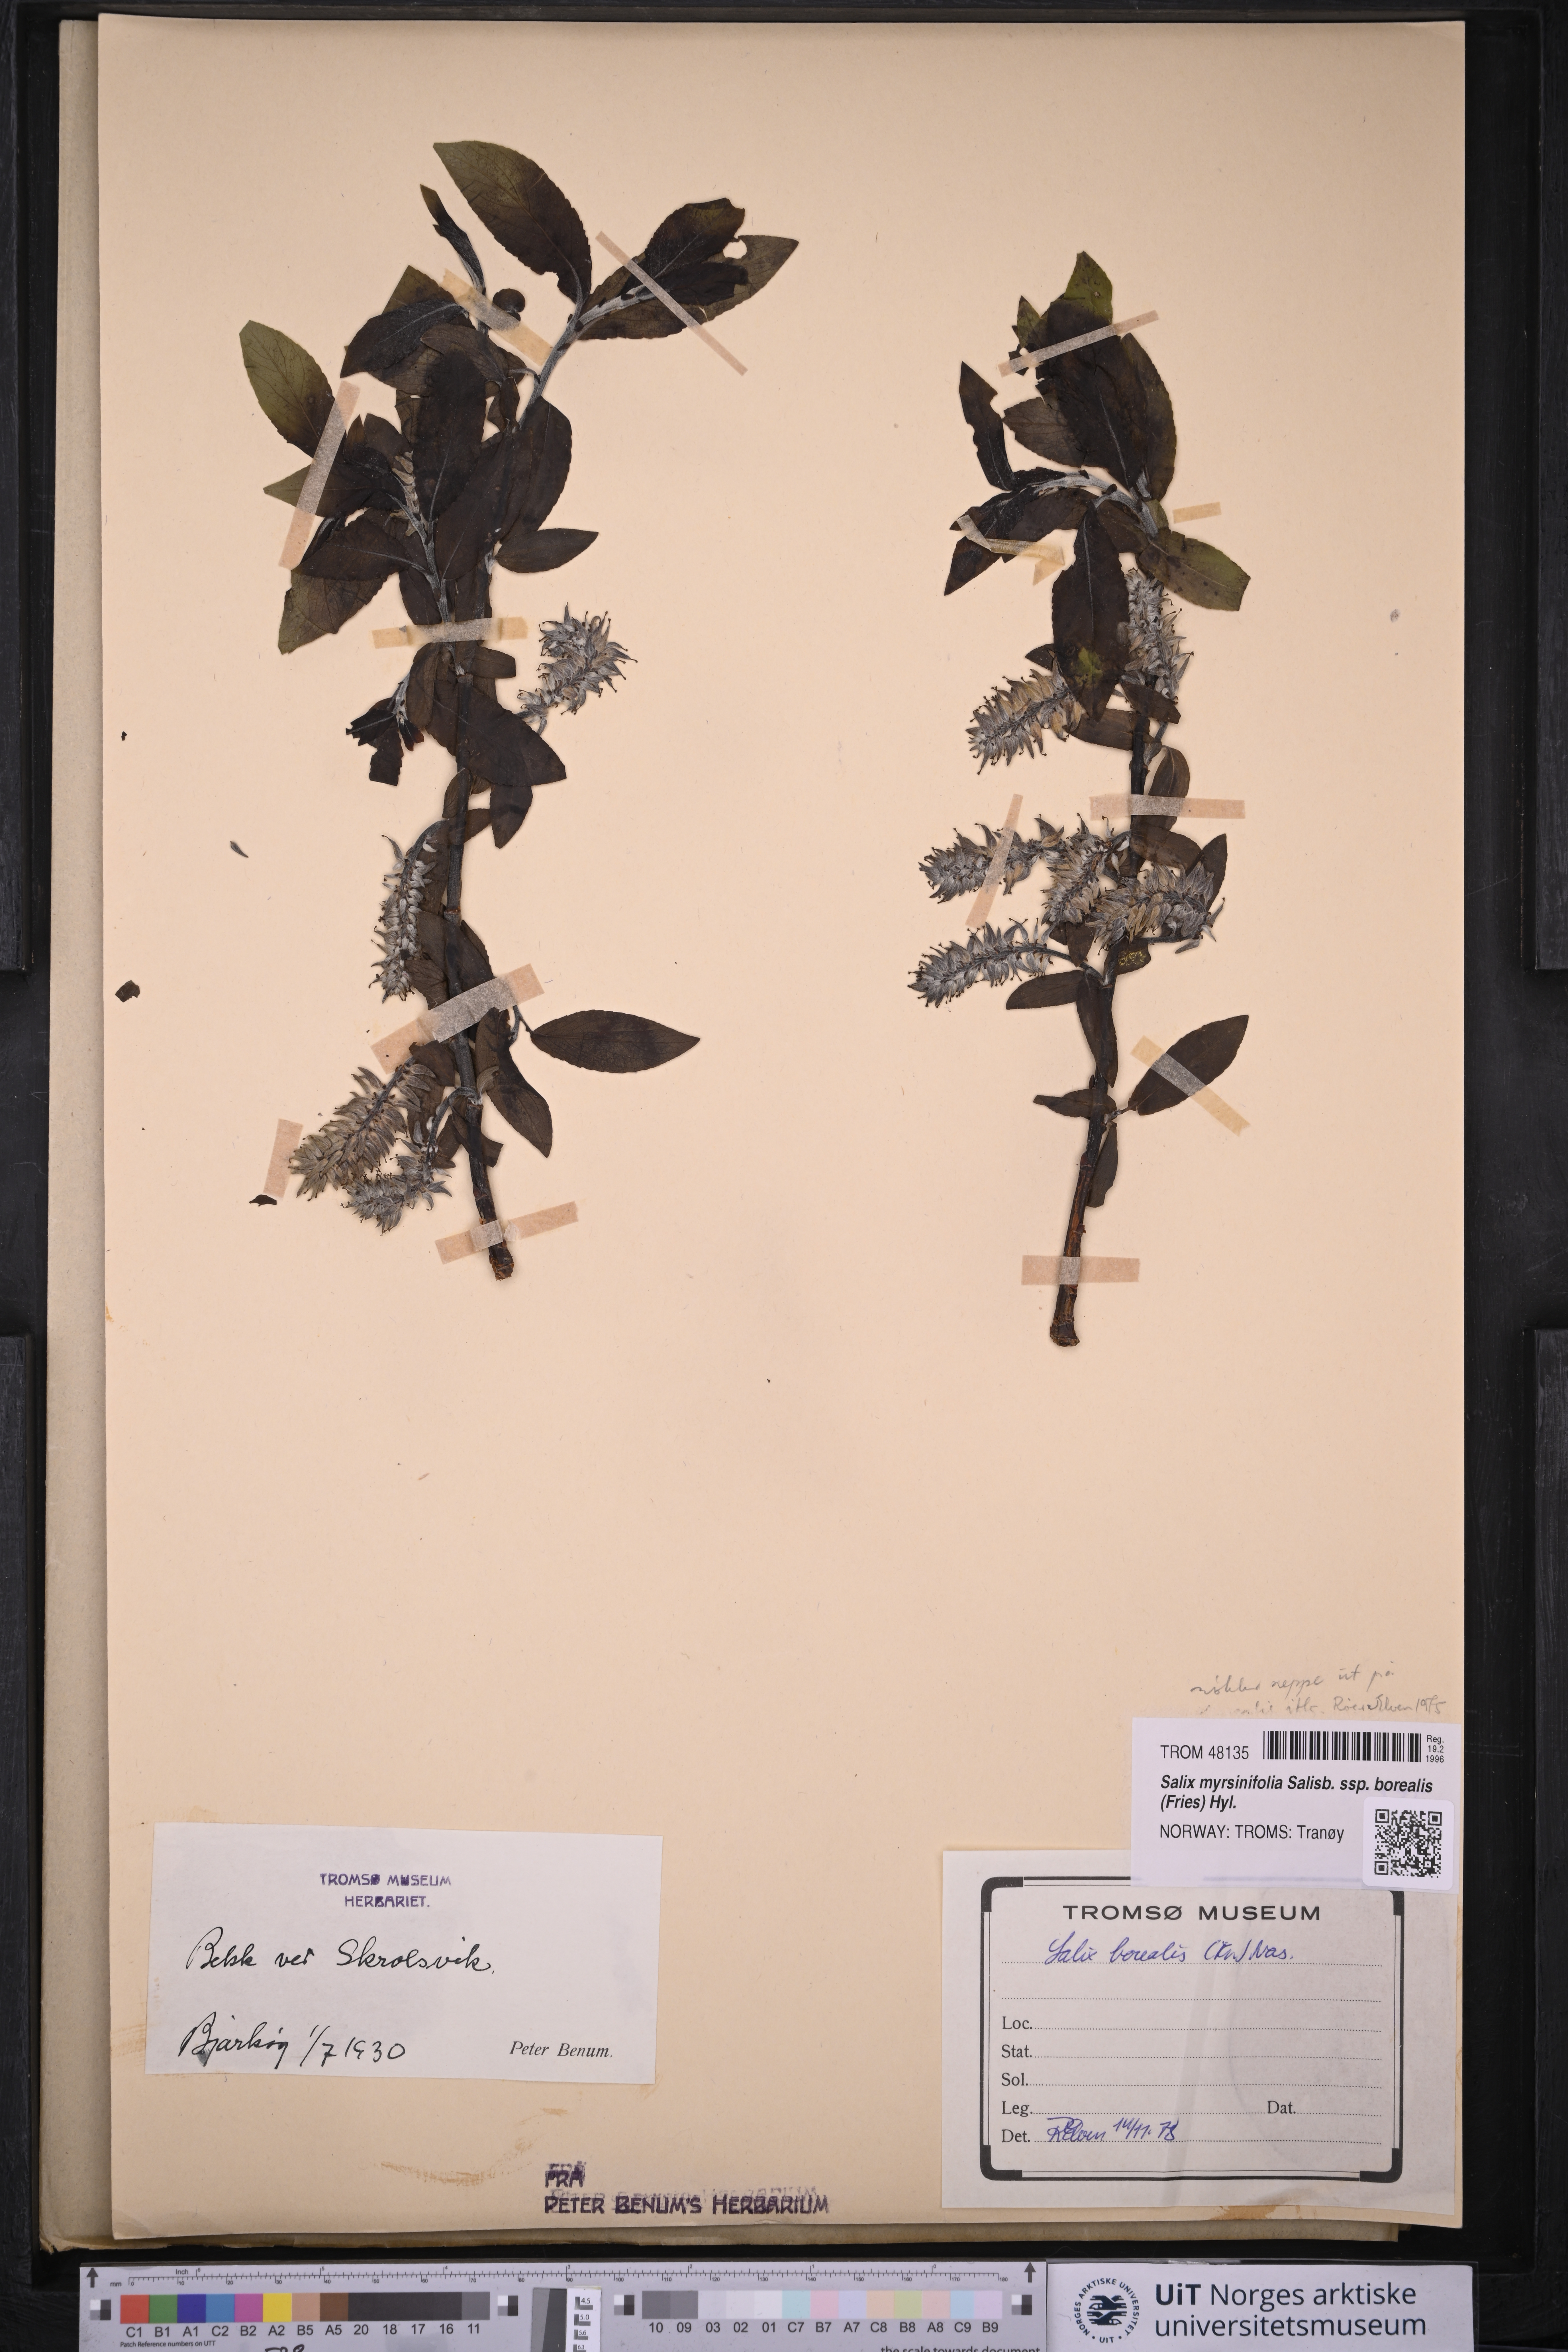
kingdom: Plantae
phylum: Tracheophyta
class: Magnoliopsida
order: Malpighiales
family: Salicaceae
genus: Salix
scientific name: Salix myrsinifolia
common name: Dark-leaved willow
